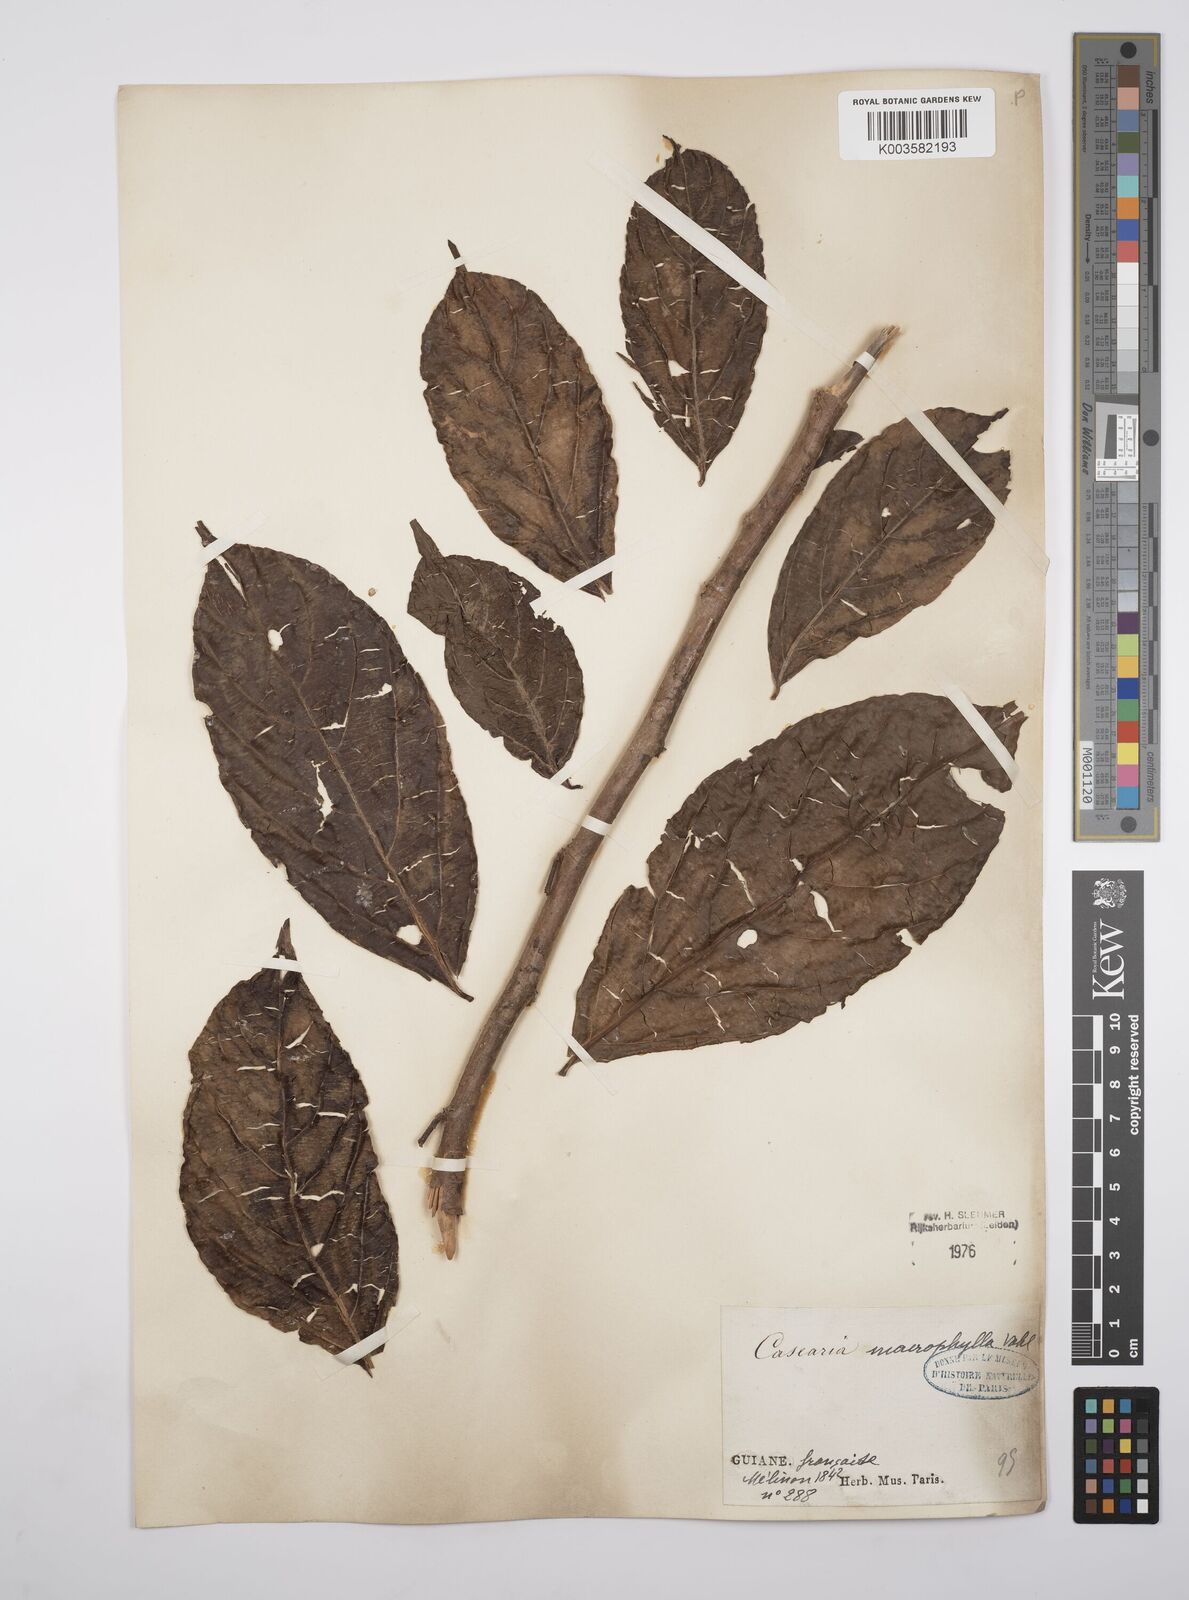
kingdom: Plantae
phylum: Tracheophyta
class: Magnoliopsida
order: Malpighiales
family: Salicaceae
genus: Casearia
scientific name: Casearia pitumba
